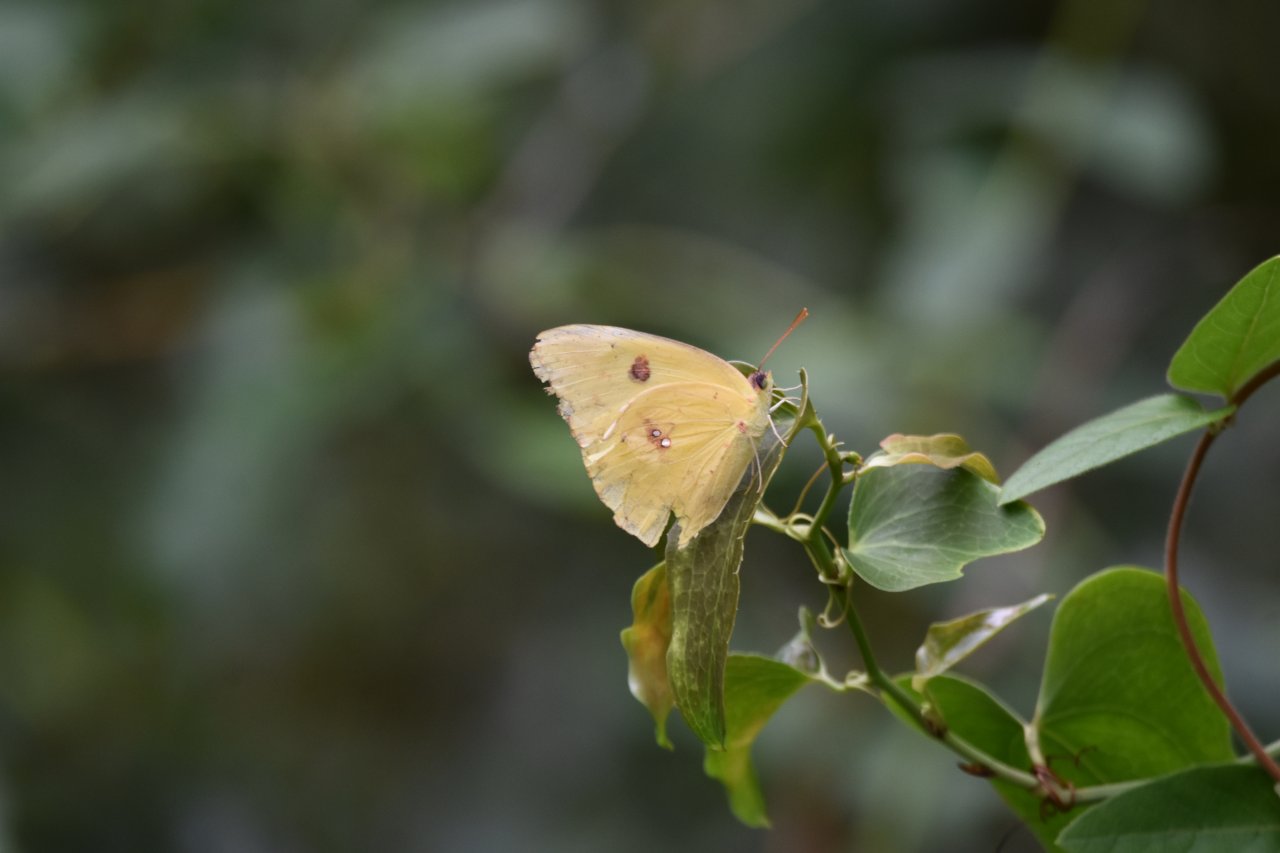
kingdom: Animalia
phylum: Arthropoda
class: Insecta
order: Lepidoptera
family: Pieridae
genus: Phoebis
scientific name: Phoebis sennae
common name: Cloudless Sulphur
